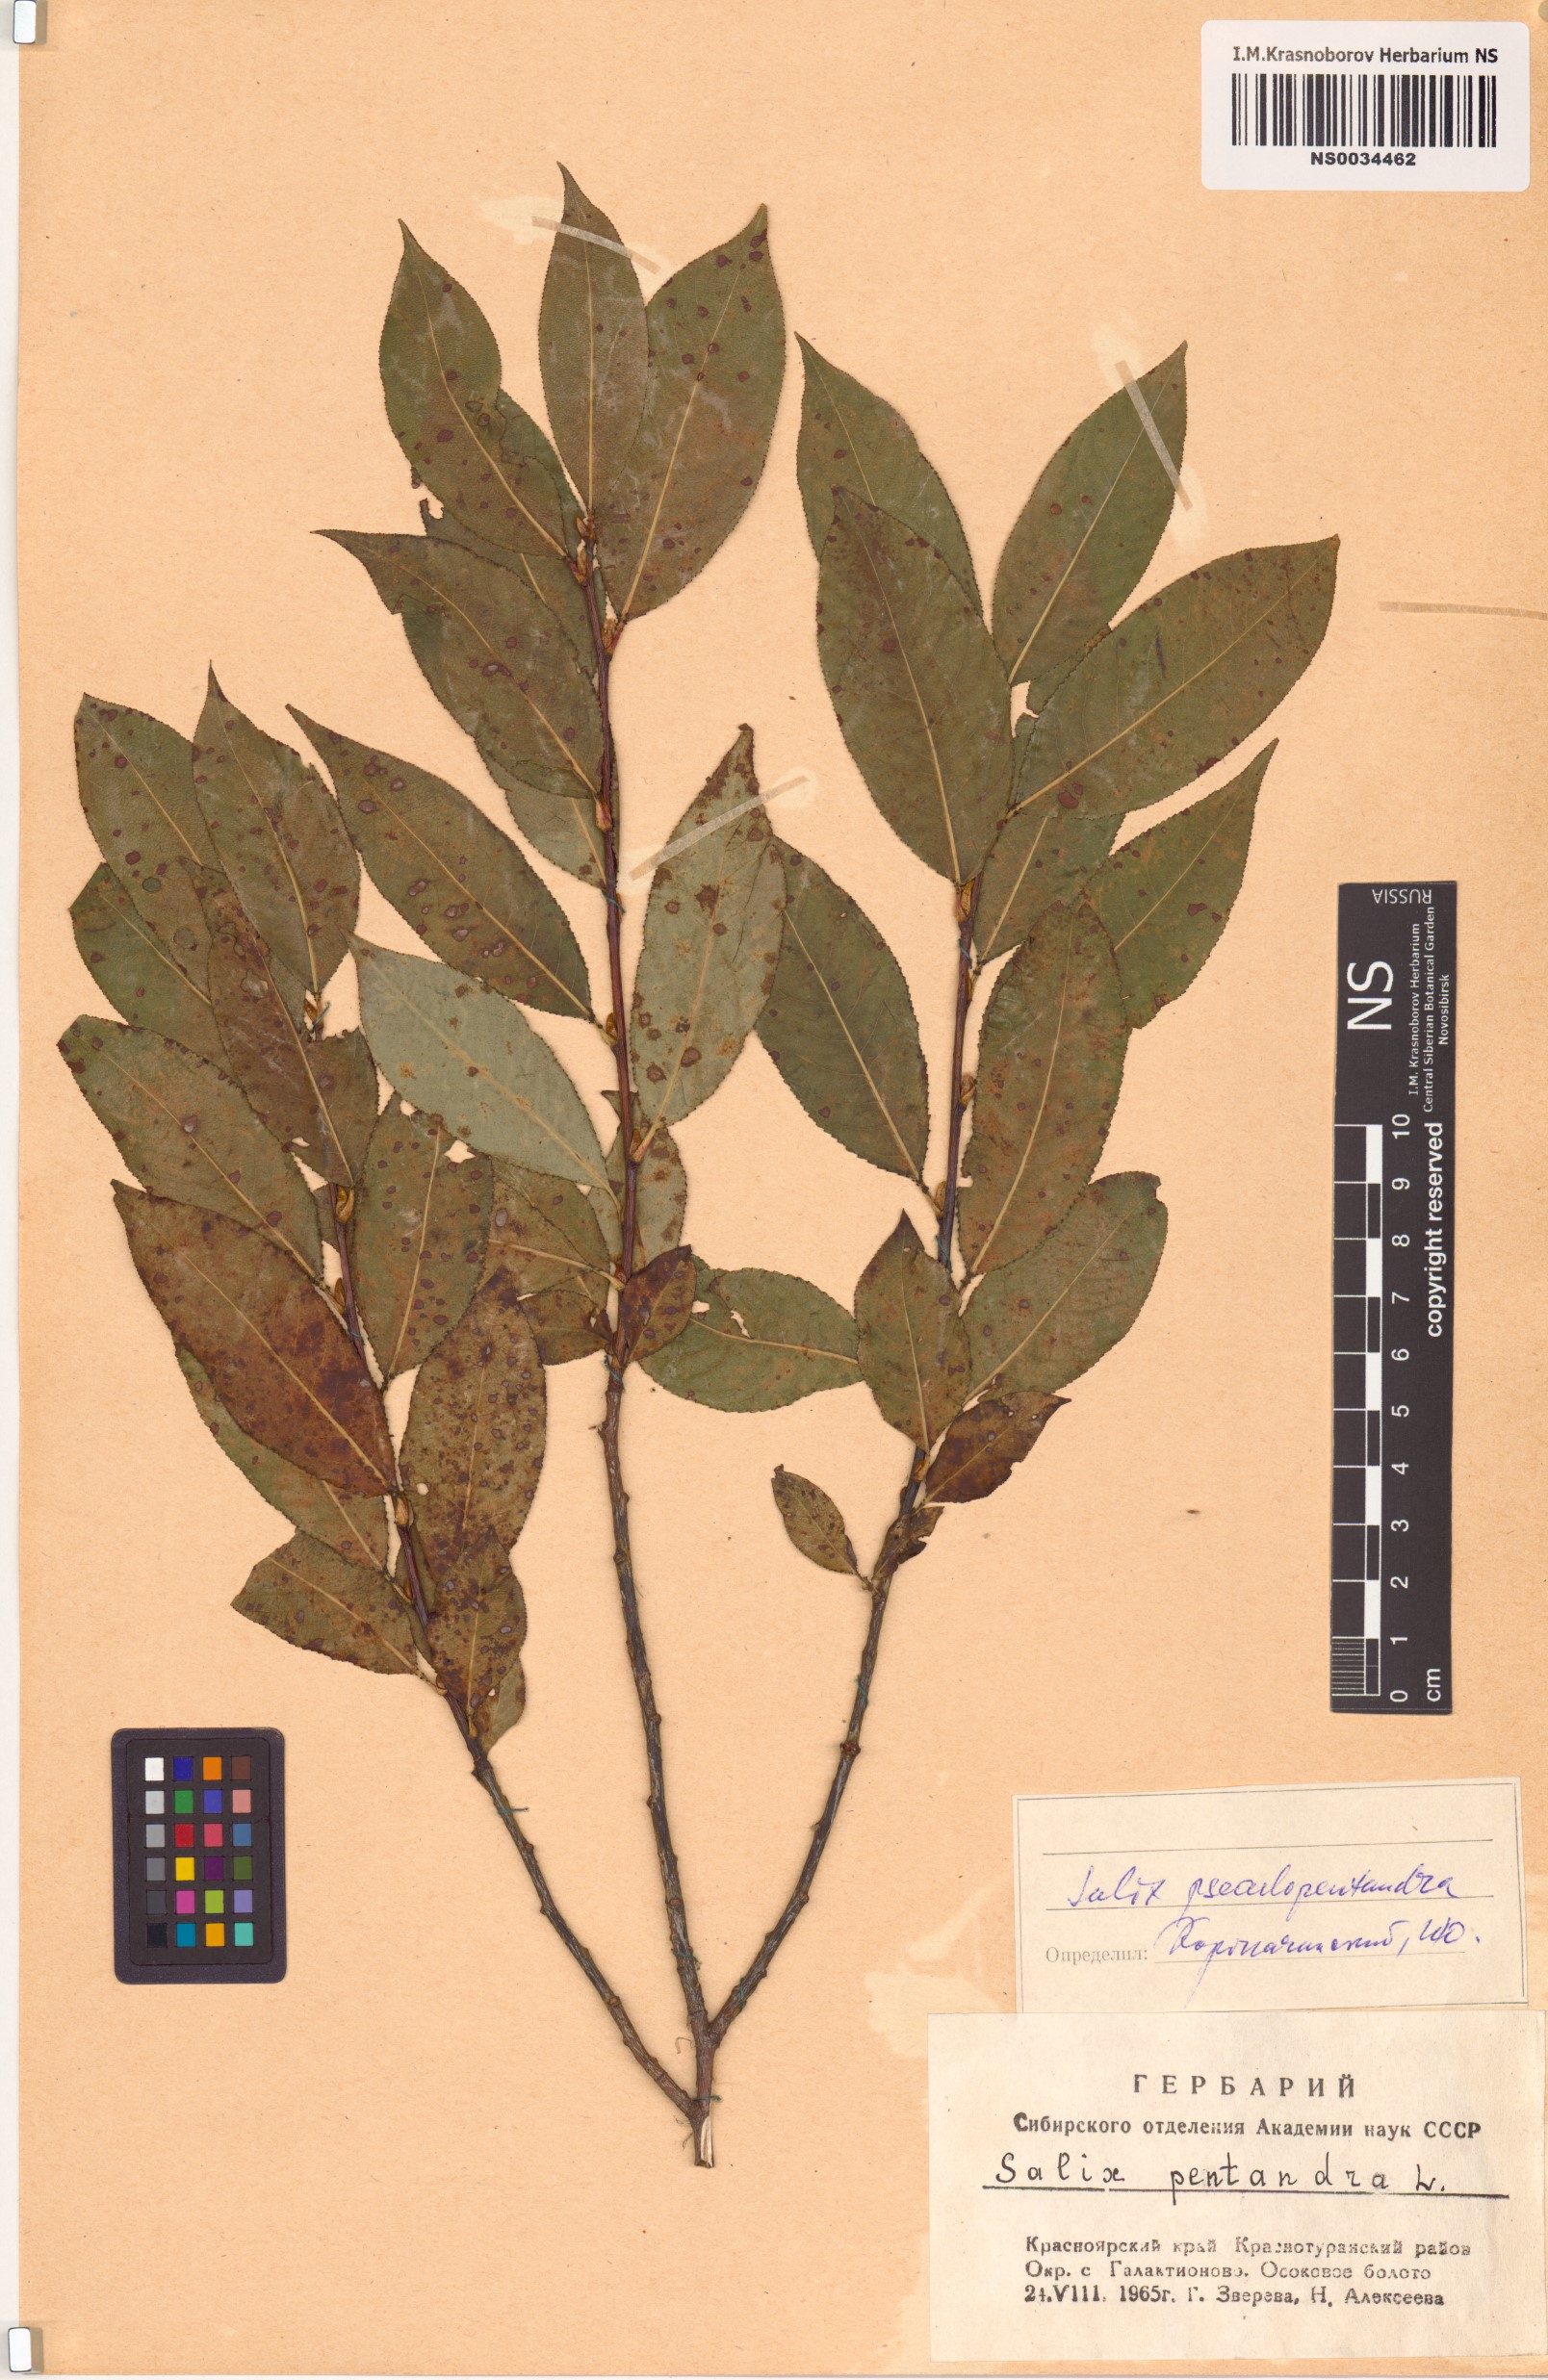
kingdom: Plantae
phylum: Tracheophyta
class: Magnoliopsida
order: Malpighiales
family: Salicaceae
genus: Salix
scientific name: Salix pseudopentandra
